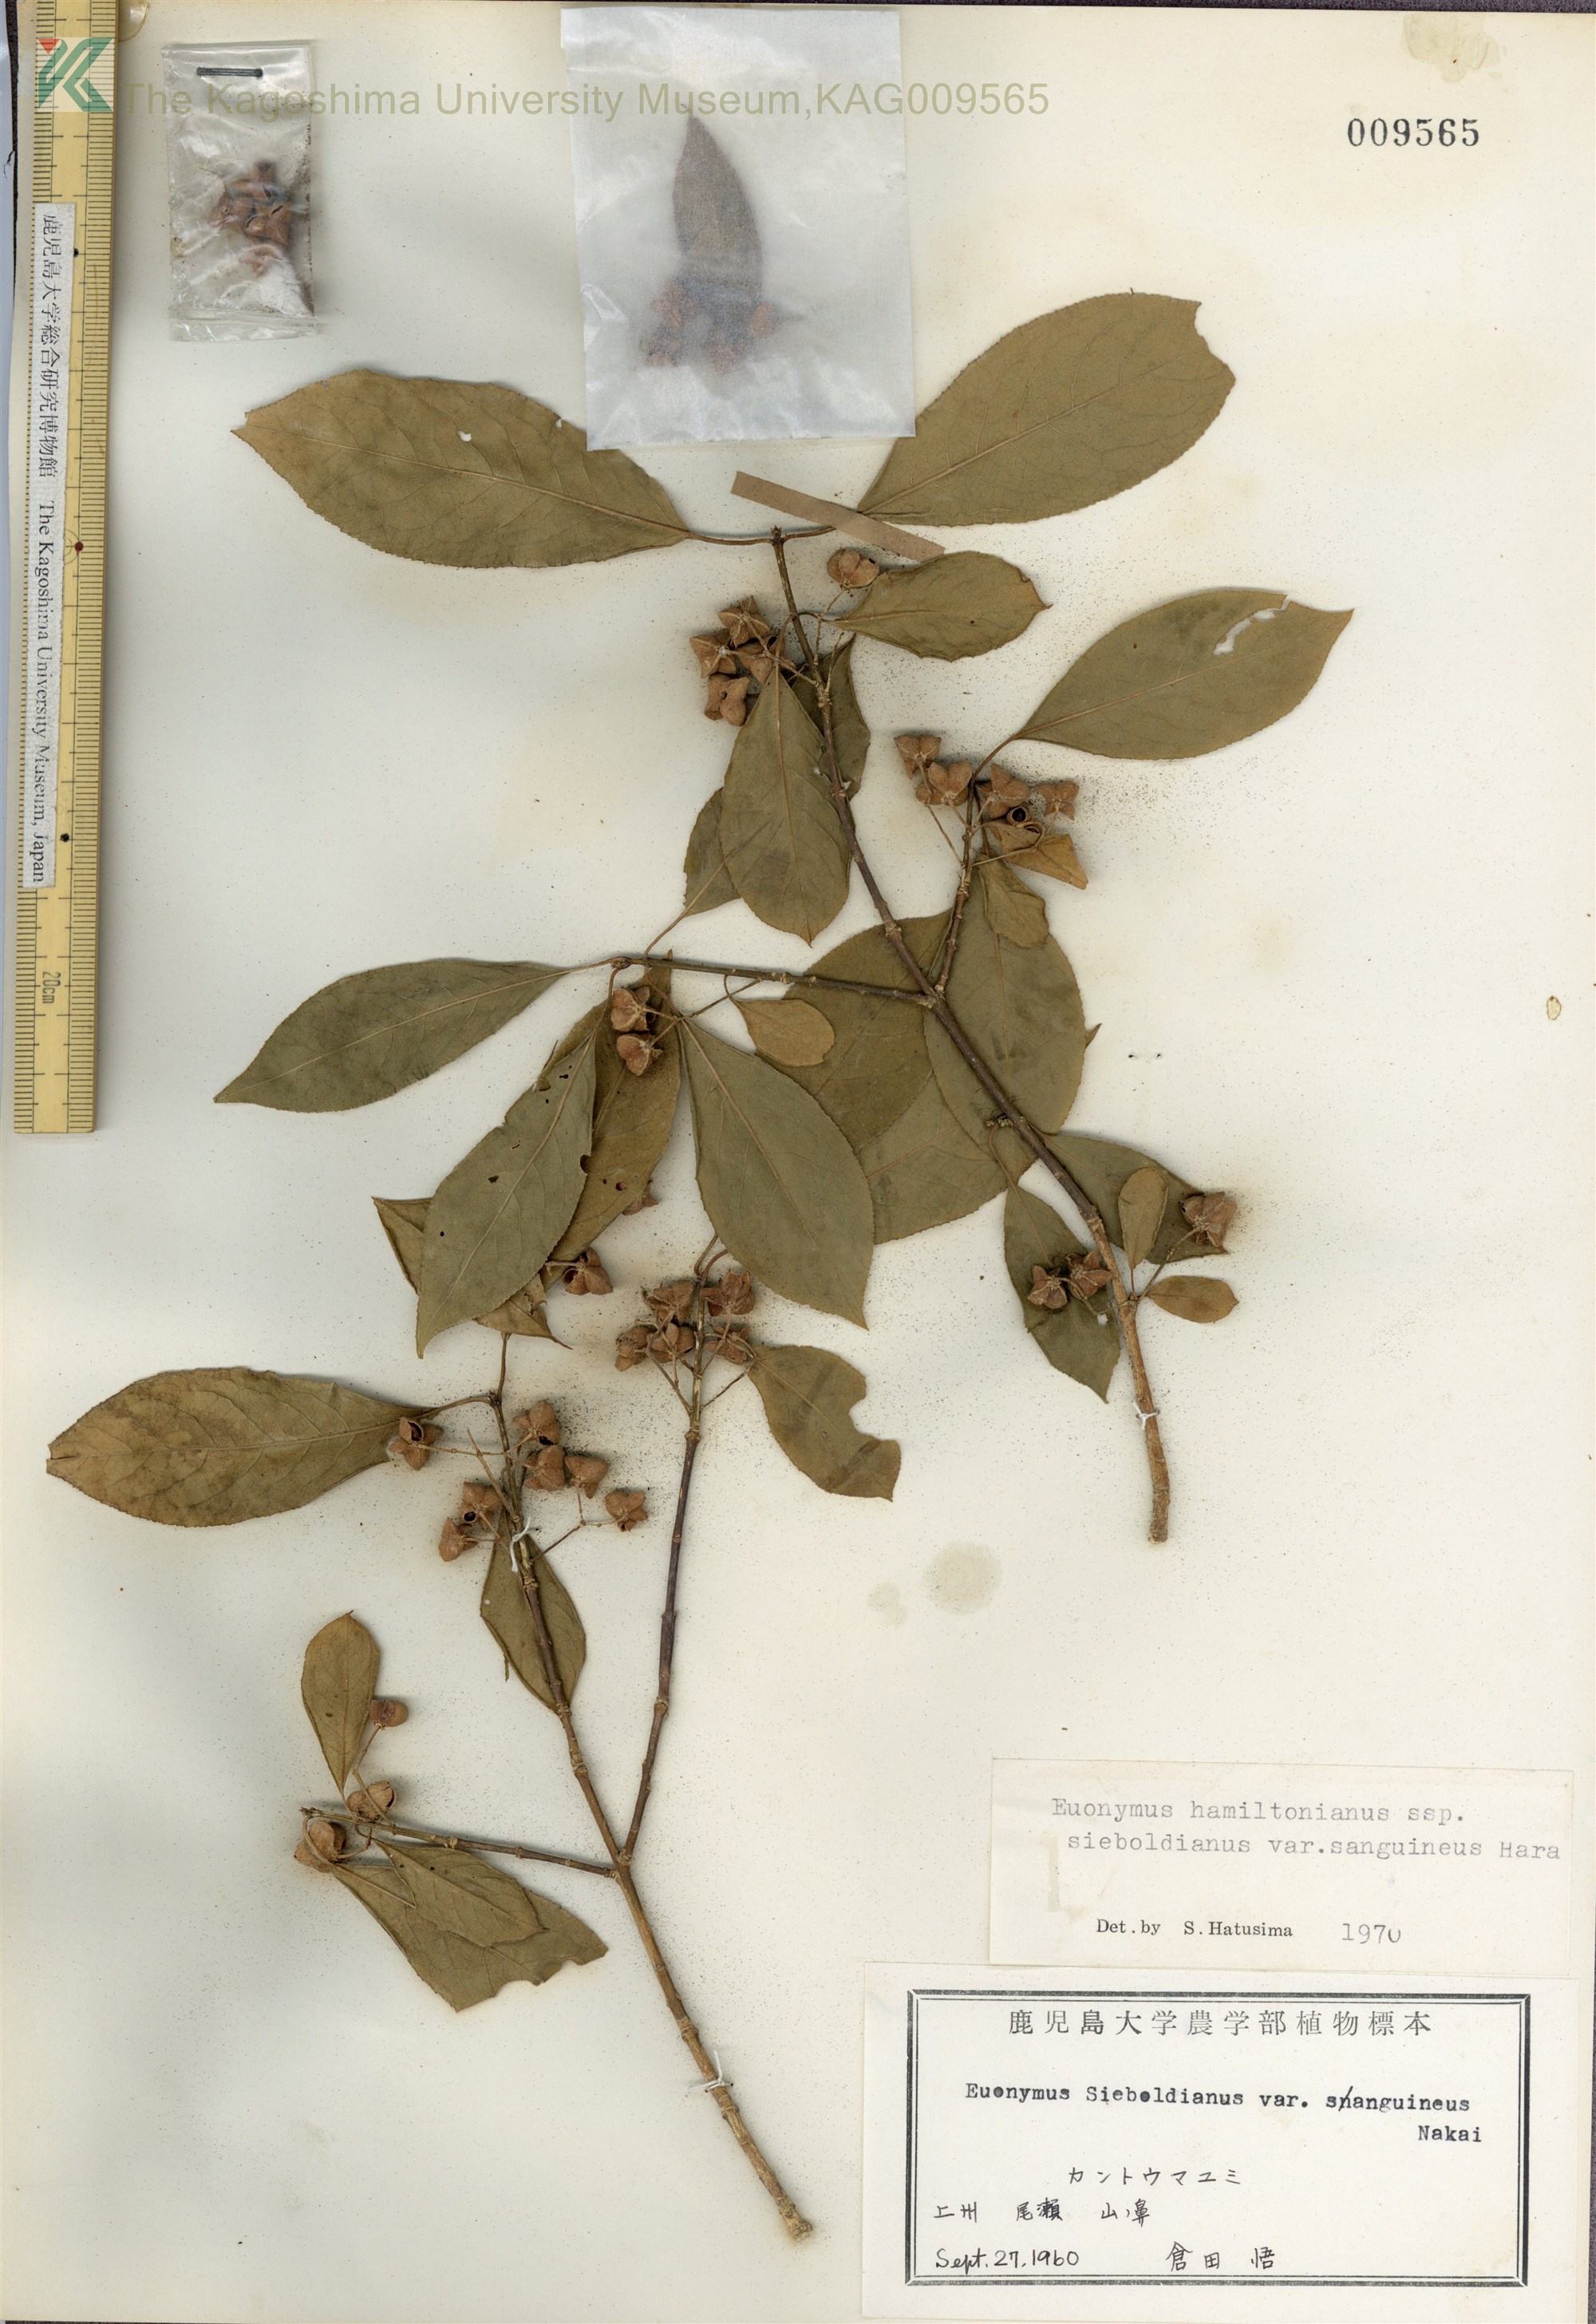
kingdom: Plantae
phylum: Tracheophyta
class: Magnoliopsida
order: Celastrales
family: Celastraceae
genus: Euonymus
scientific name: Euonymus hamiltonianus
